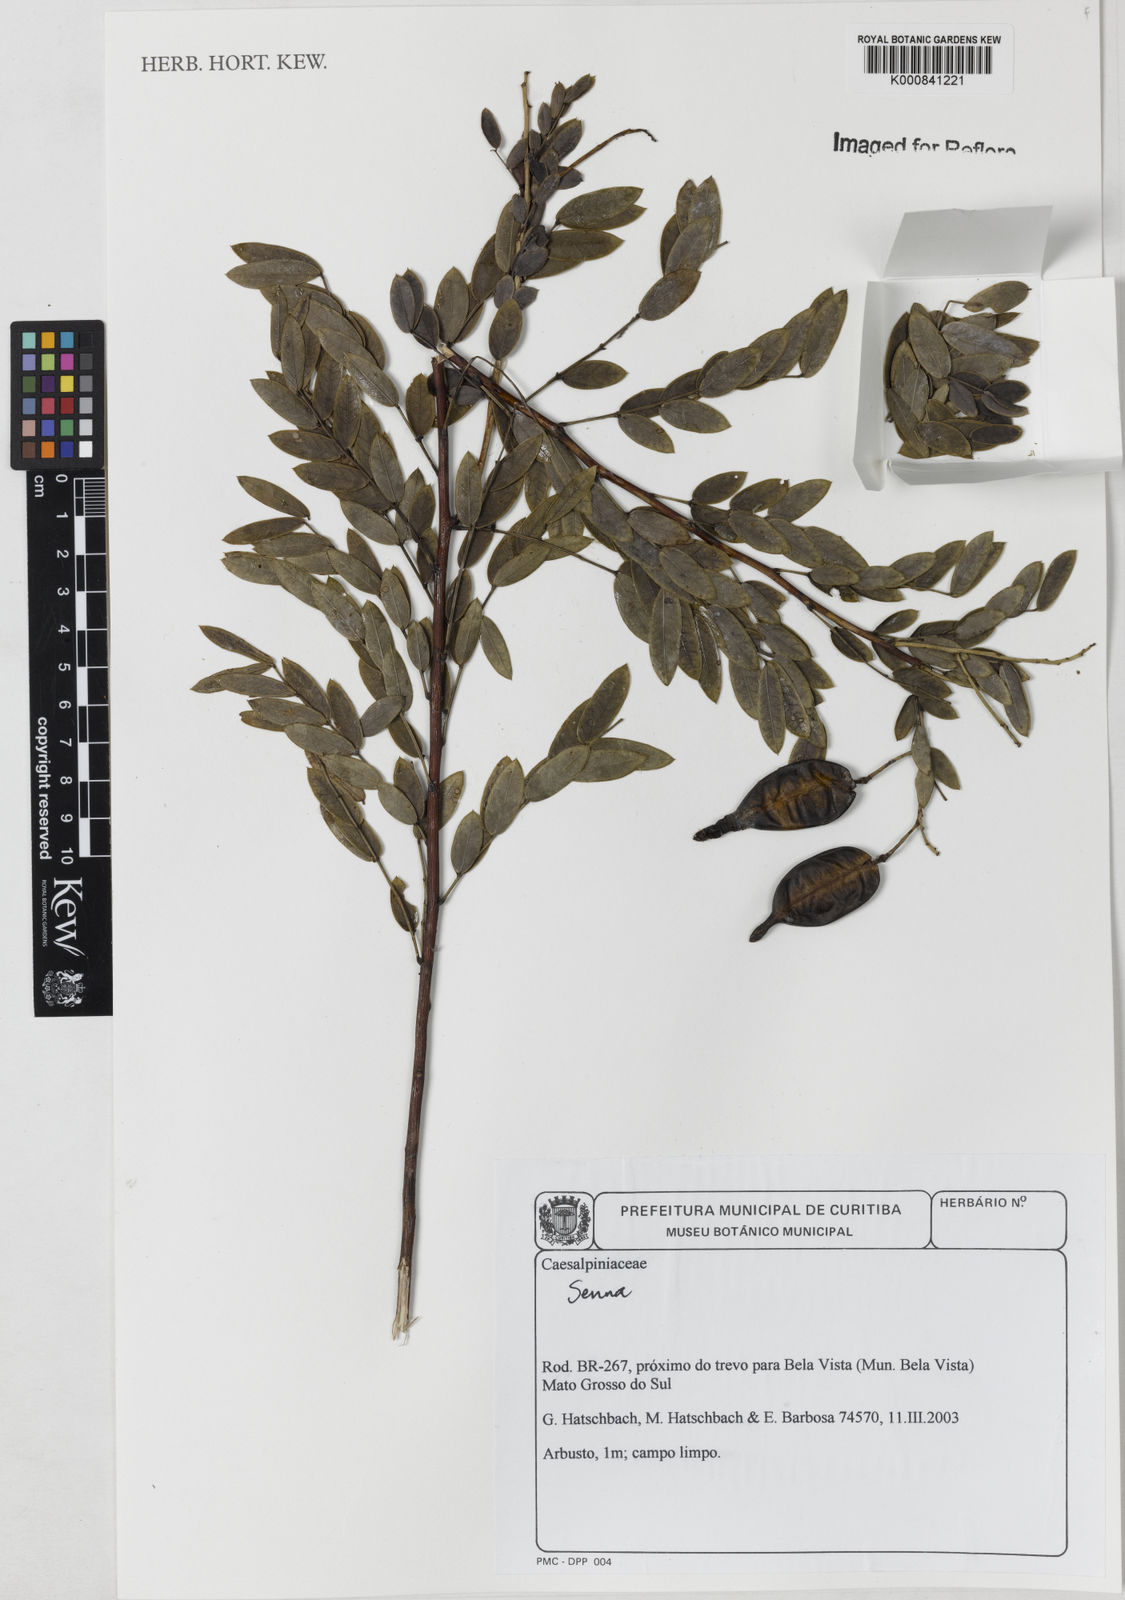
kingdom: Plantae
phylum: Tracheophyta
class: Magnoliopsida
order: Fabales
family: Fabaceae
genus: Senna
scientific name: Senna
